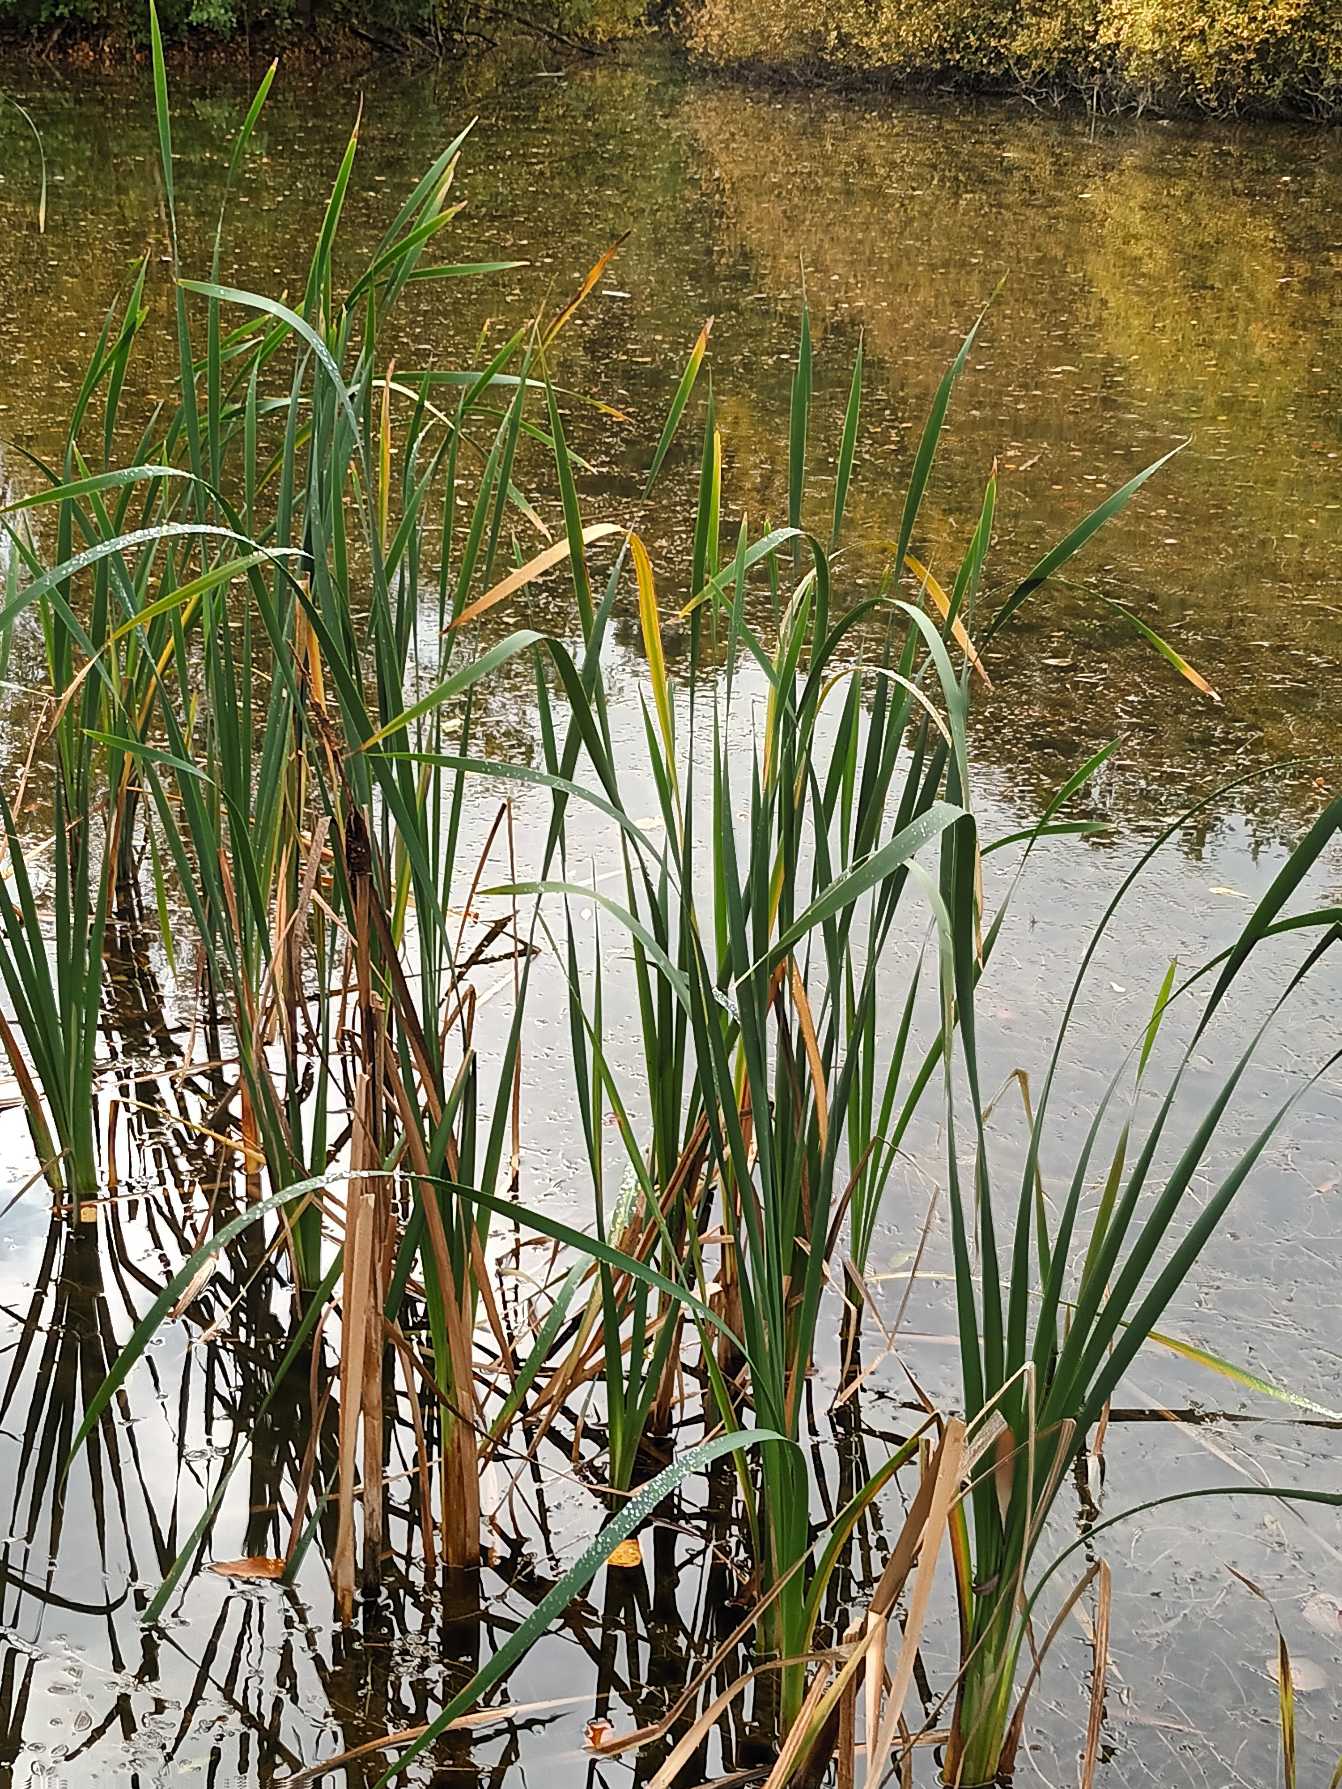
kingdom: Plantae
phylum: Tracheophyta
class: Liliopsida
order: Poales
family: Typhaceae
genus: Typha
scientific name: Typha latifolia
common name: Bredbladet dunhammer
